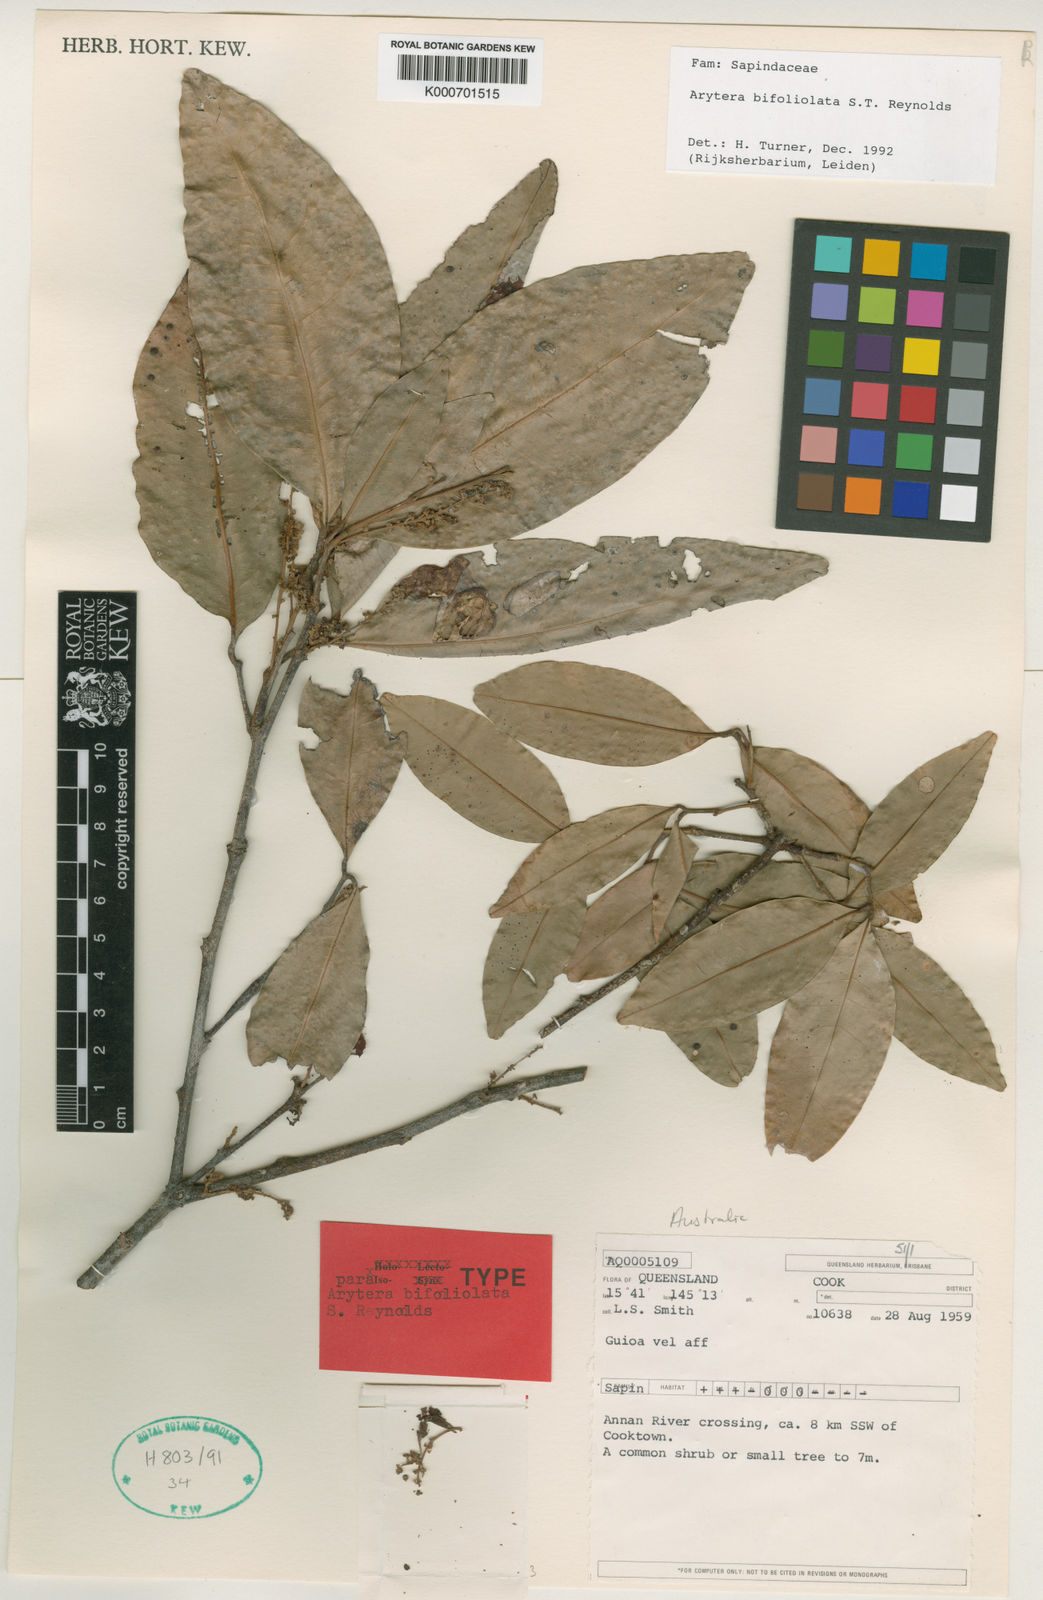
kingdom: Plantae
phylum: Tracheophyta
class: Magnoliopsida
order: Sapindales
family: Sapindaceae
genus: Arytera
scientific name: Arytera bifoliolata
